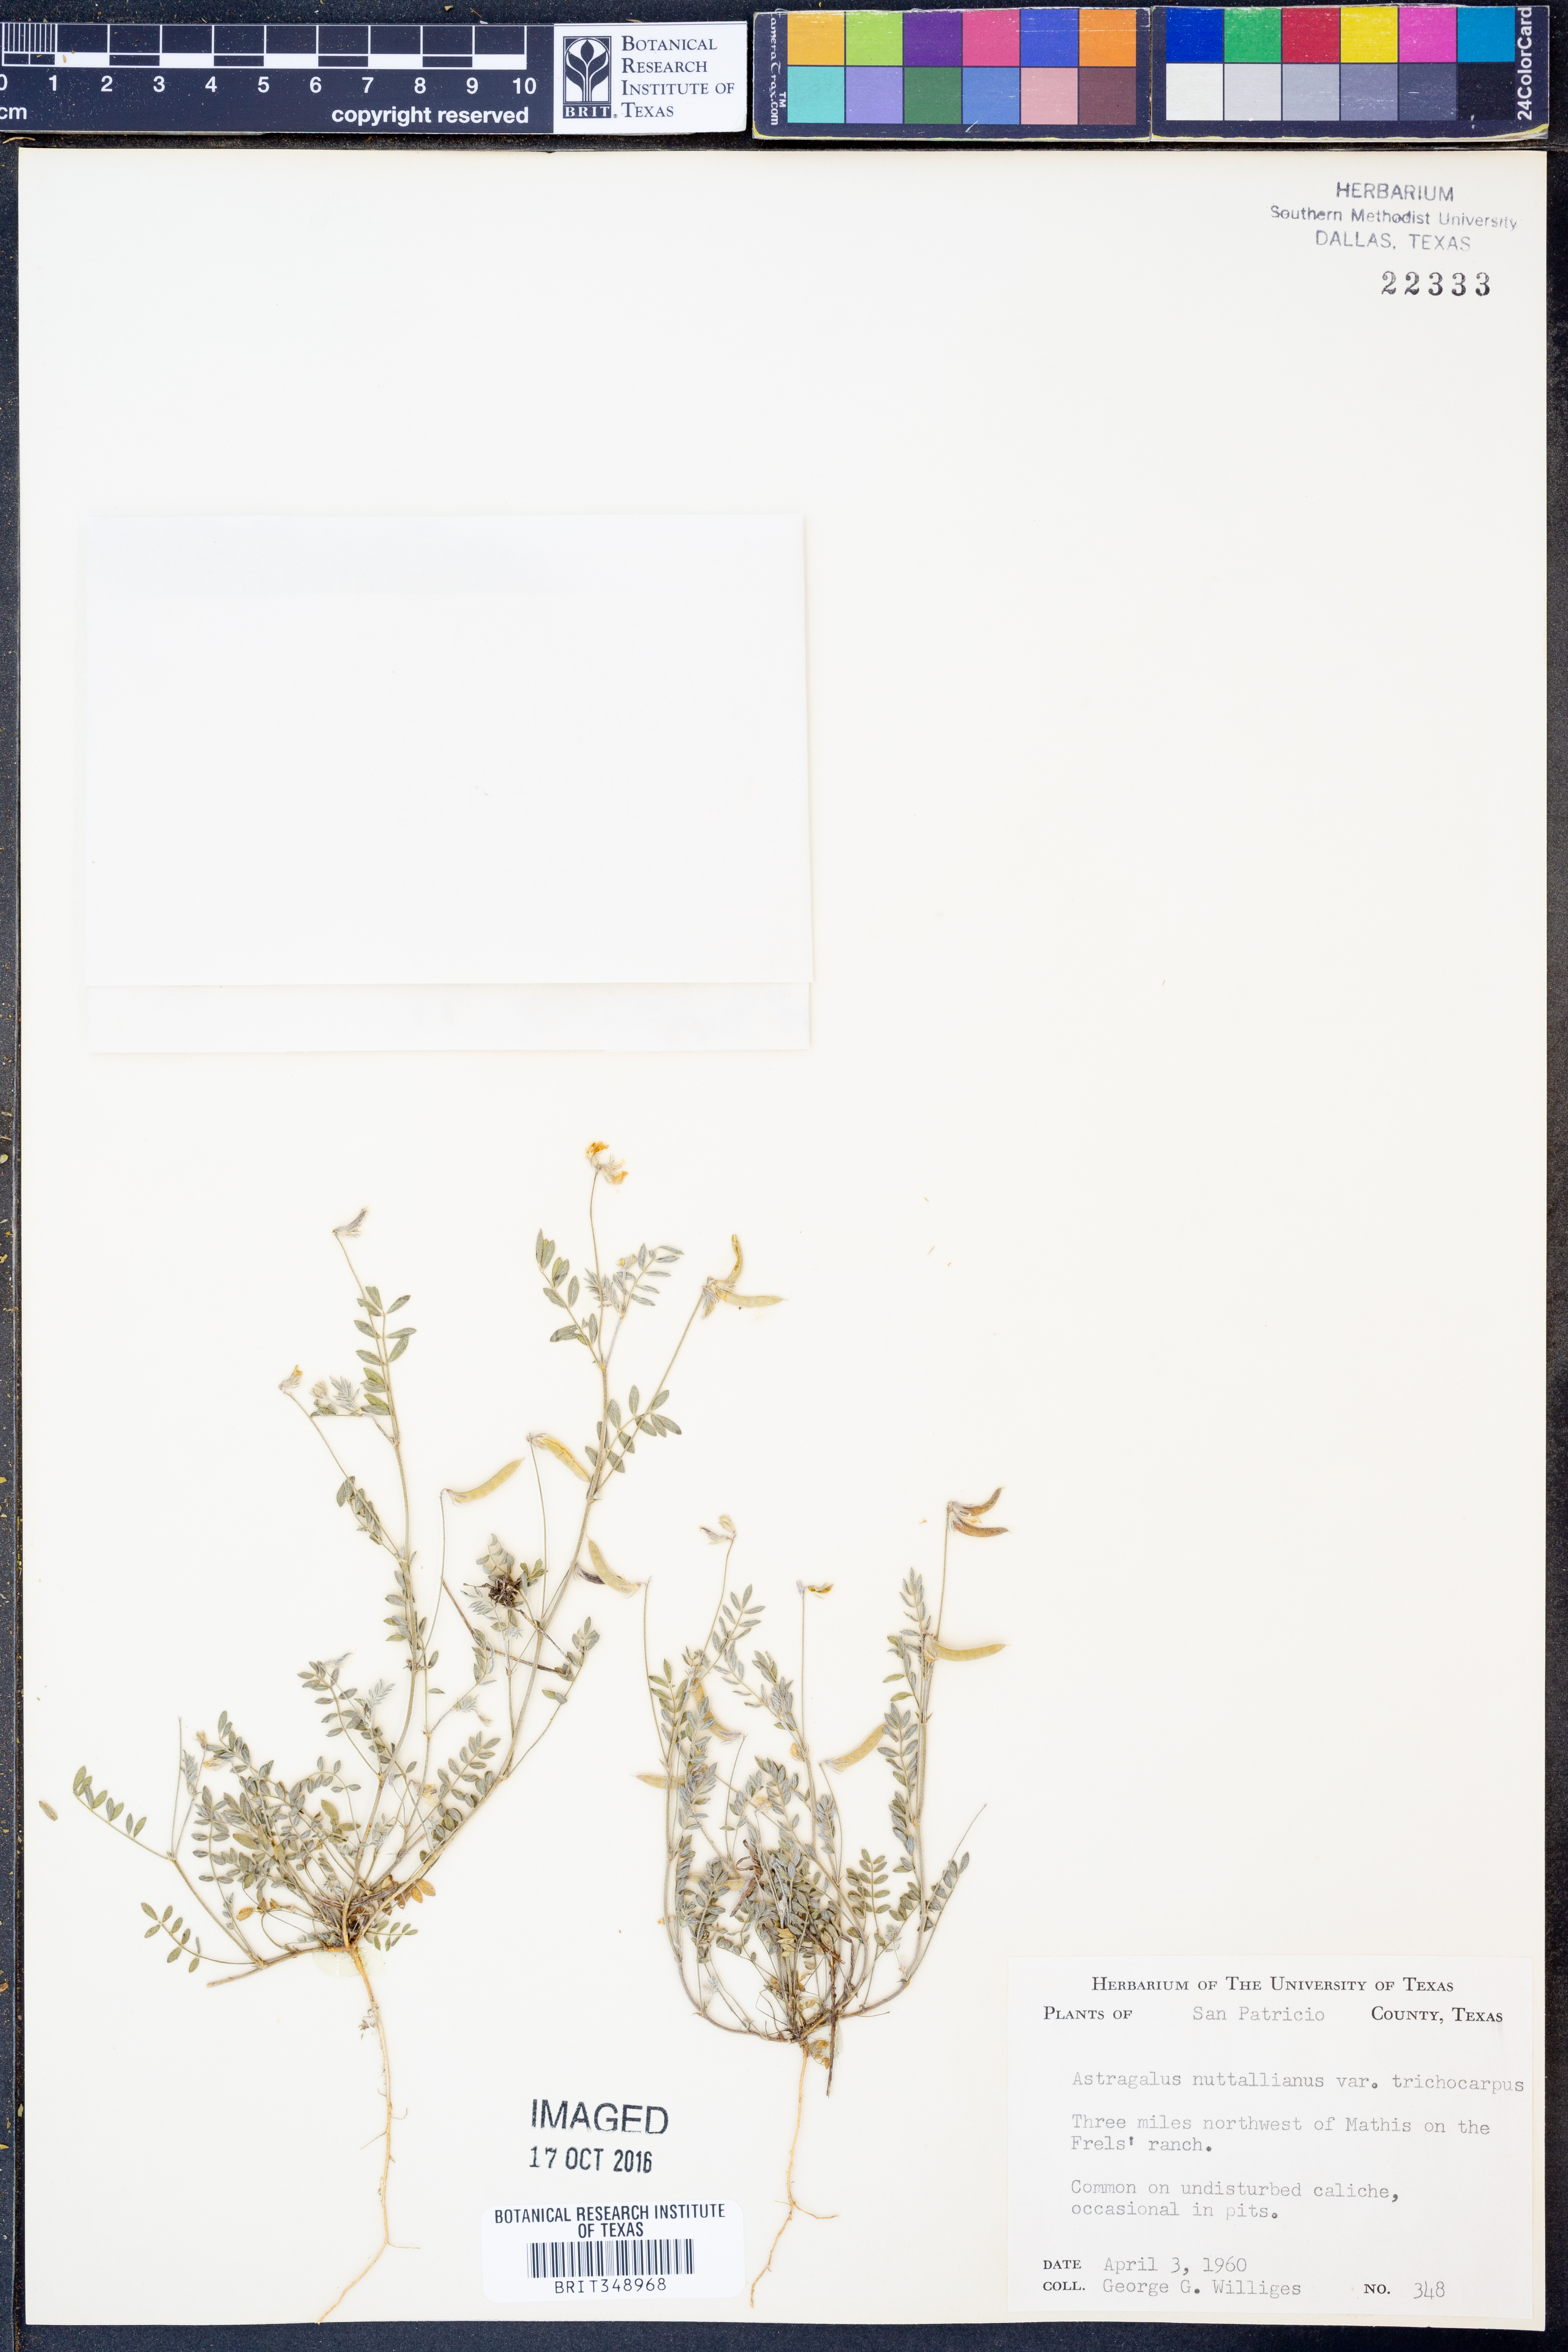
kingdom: Plantae
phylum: Tracheophyta
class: Magnoliopsida
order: Fabales
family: Fabaceae
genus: Astragalus
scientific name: Astragalus nuttallianus
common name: Smallflowered milkvetch
